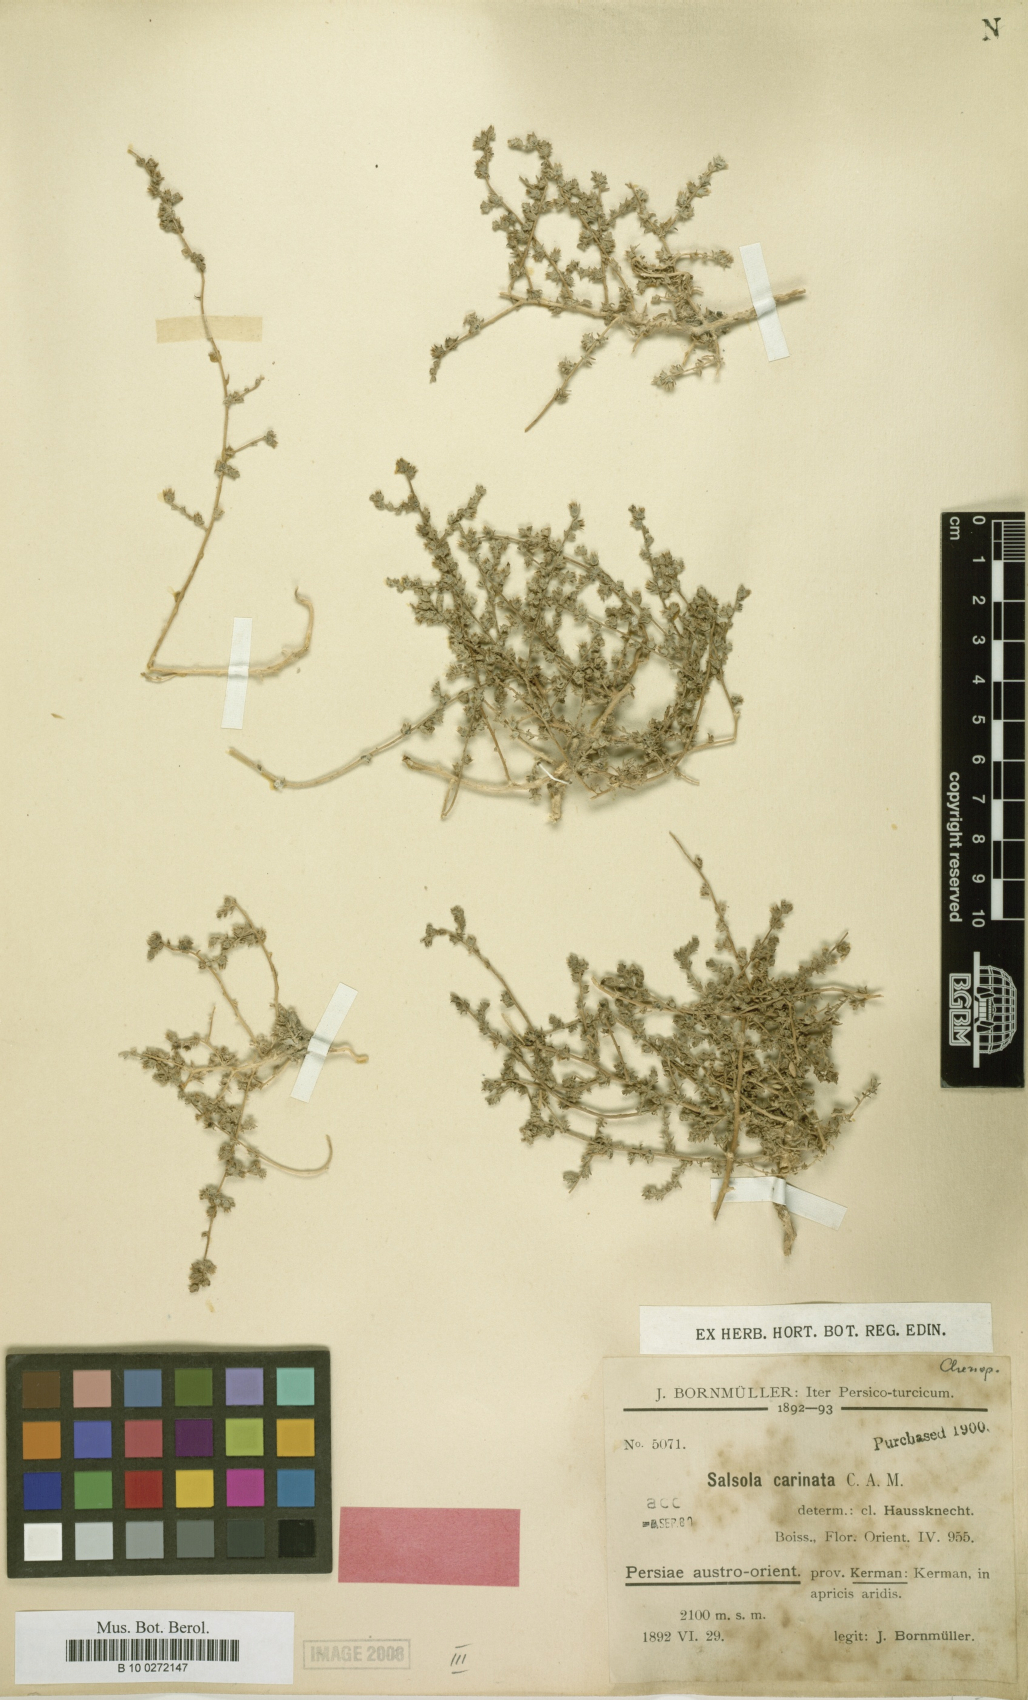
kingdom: Plantae
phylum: Tracheophyta
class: Magnoliopsida
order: Caryophyllales
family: Amaranthaceae
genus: Caroxylon
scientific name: Caroxylon jordanicola
